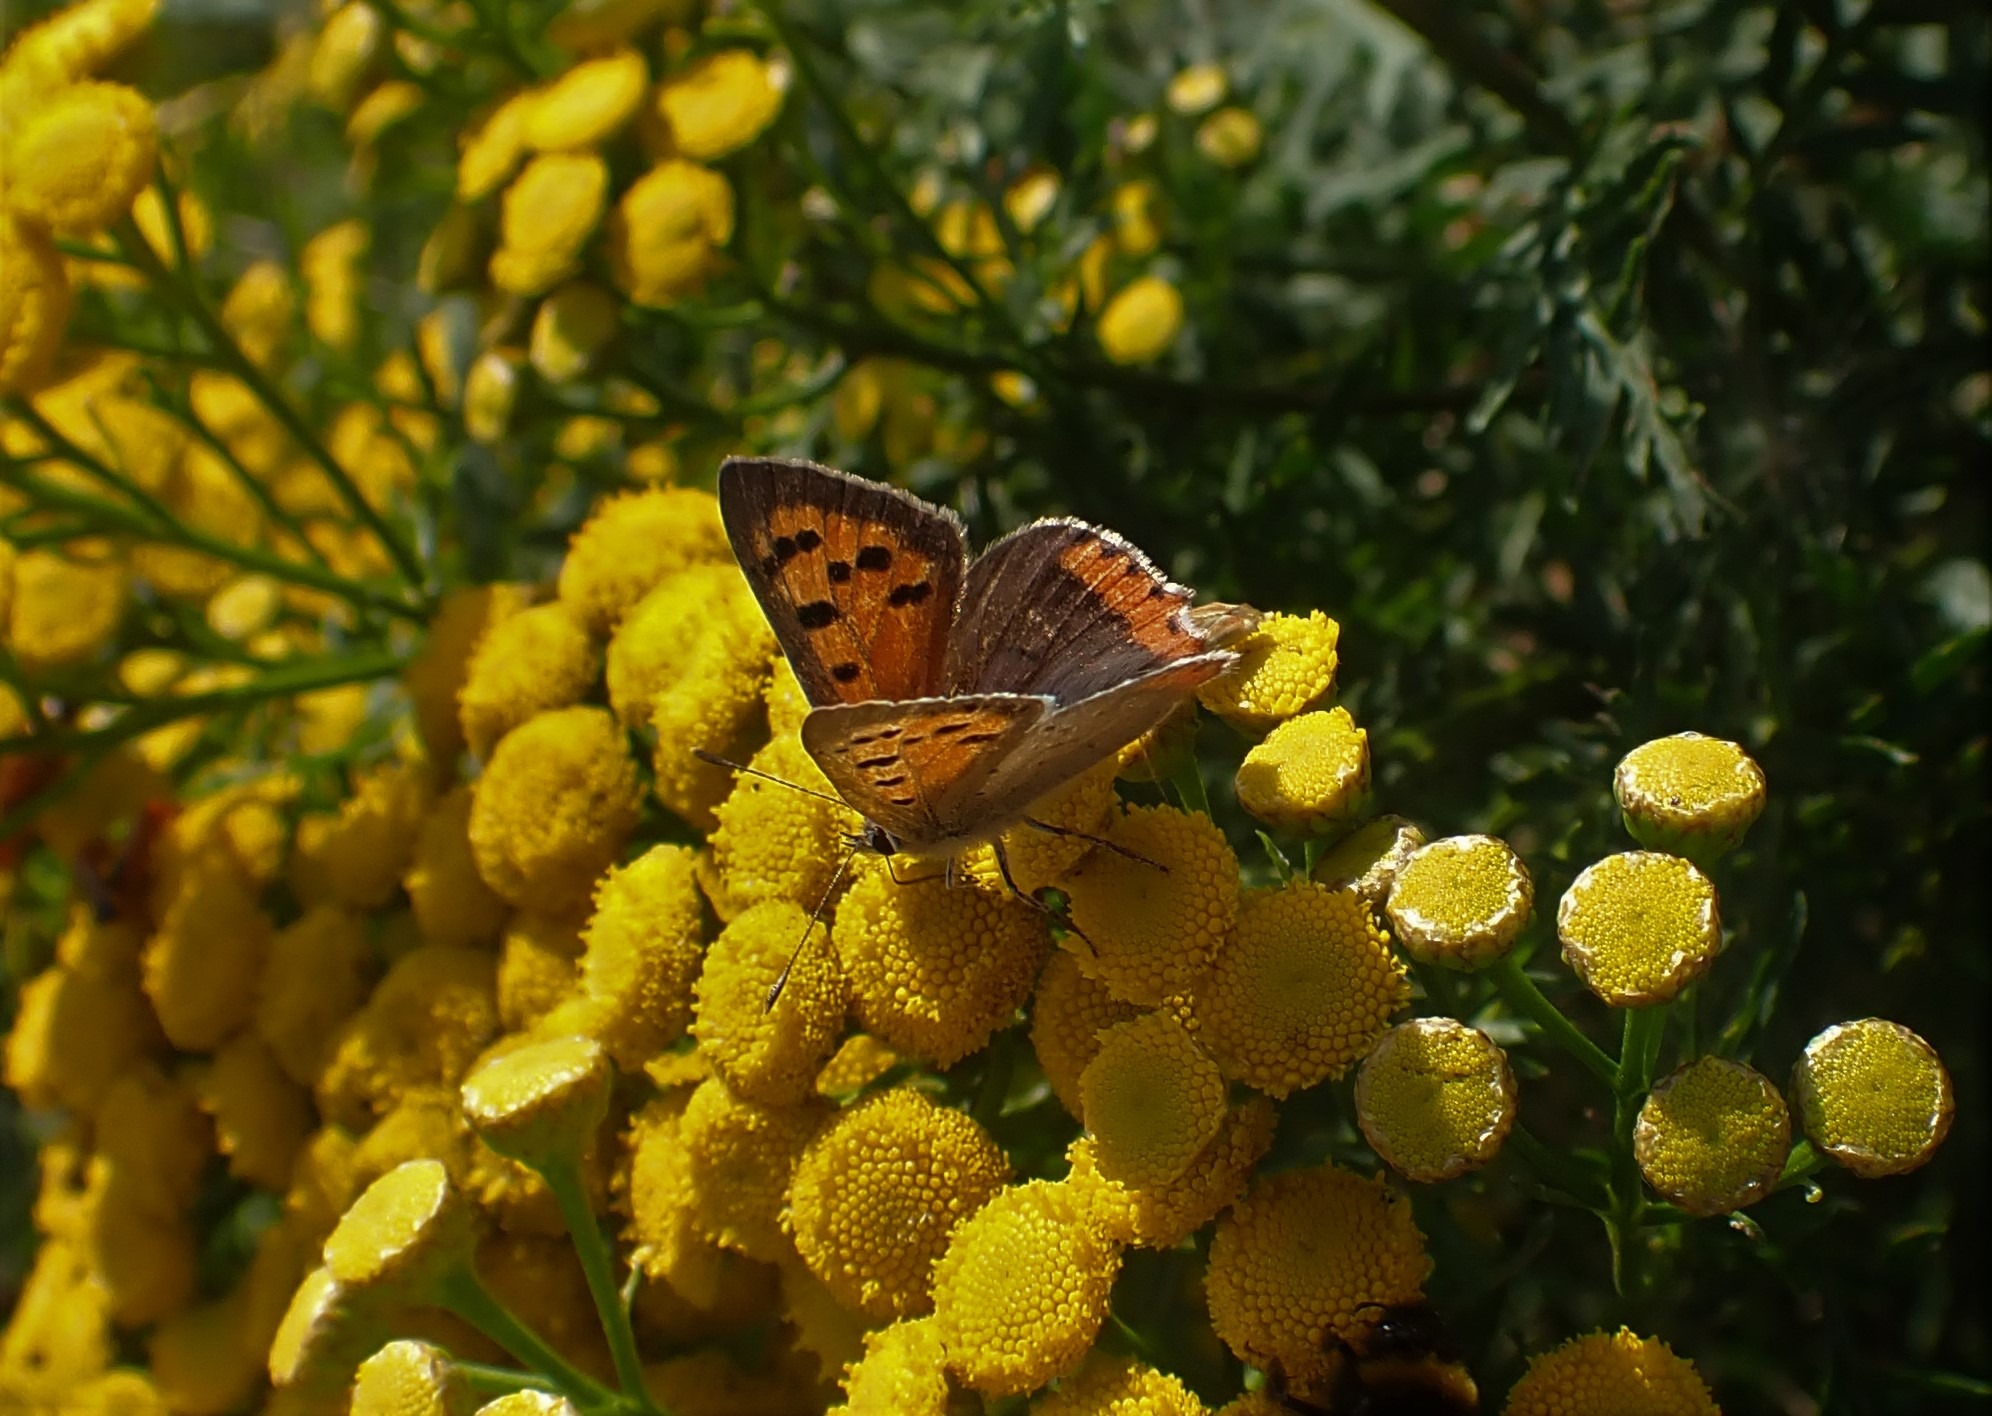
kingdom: Animalia
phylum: Arthropoda
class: Insecta
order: Lepidoptera
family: Lycaenidae
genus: Lycaena
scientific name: Lycaena phlaeas
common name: Lille ildfugl
